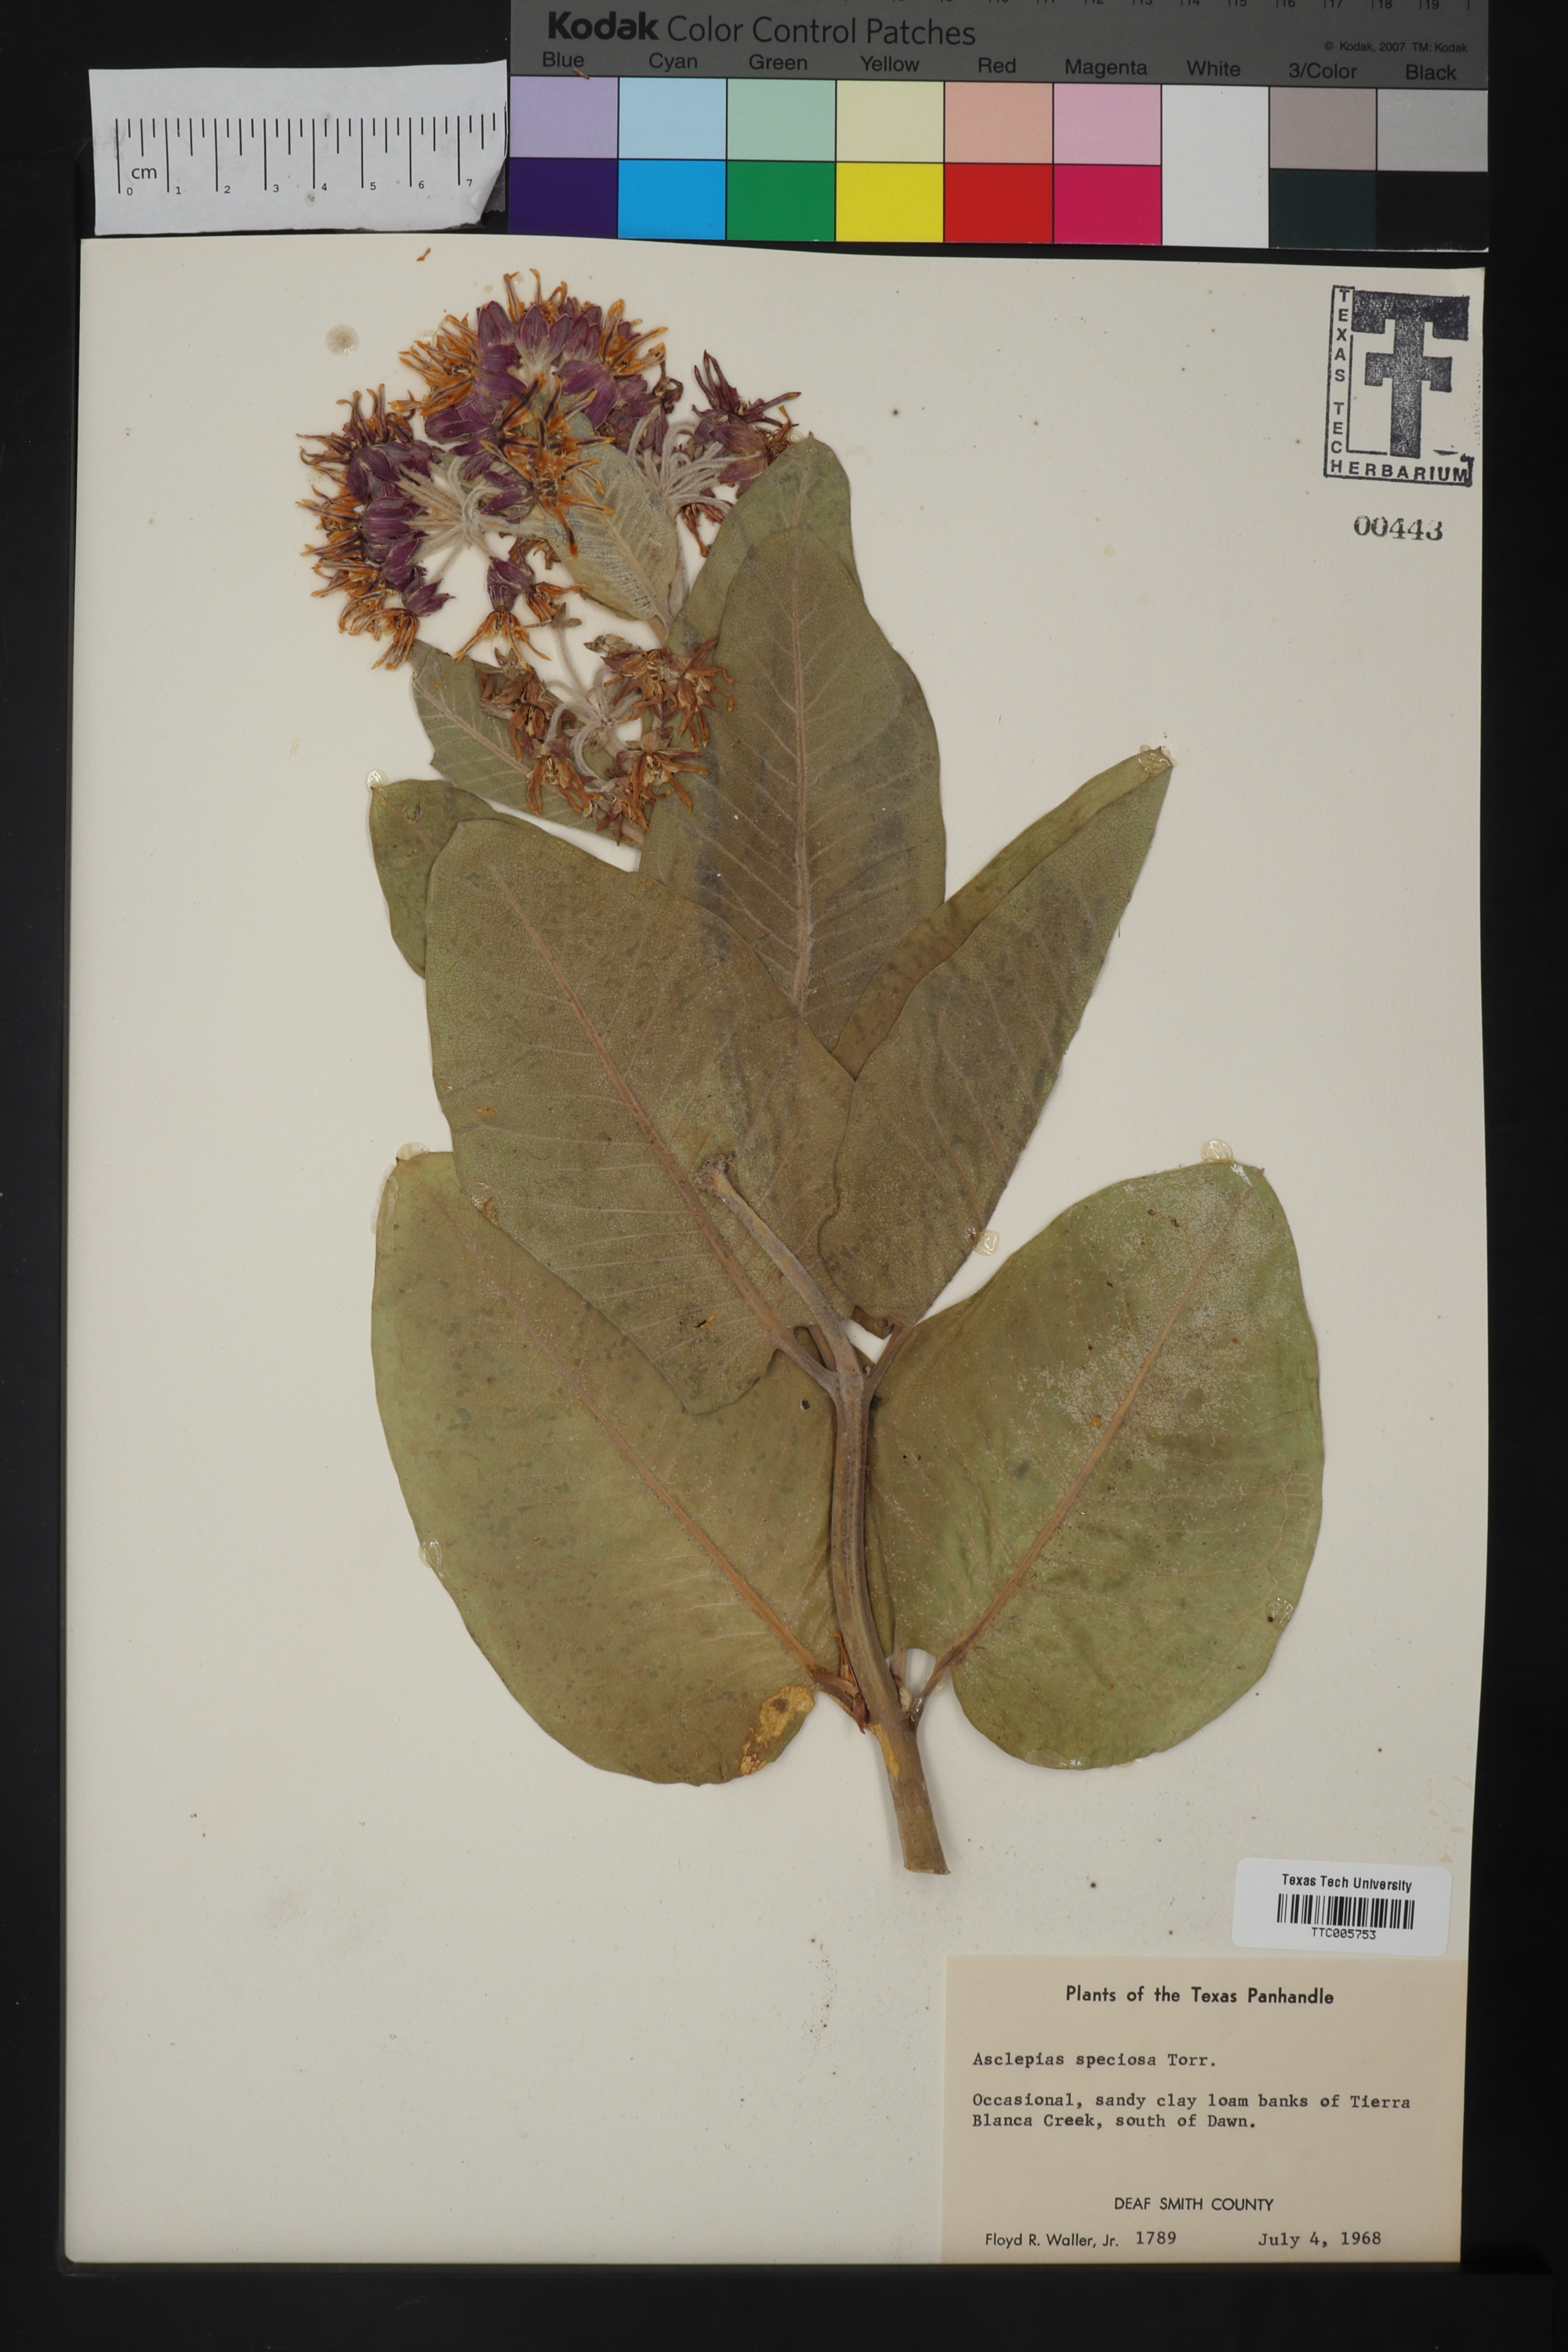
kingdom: Plantae
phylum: Tracheophyta
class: Magnoliopsida
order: Gentianales
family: Apocynaceae
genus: Asclepias
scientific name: Asclepias speciosa
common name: Showy milkweed
